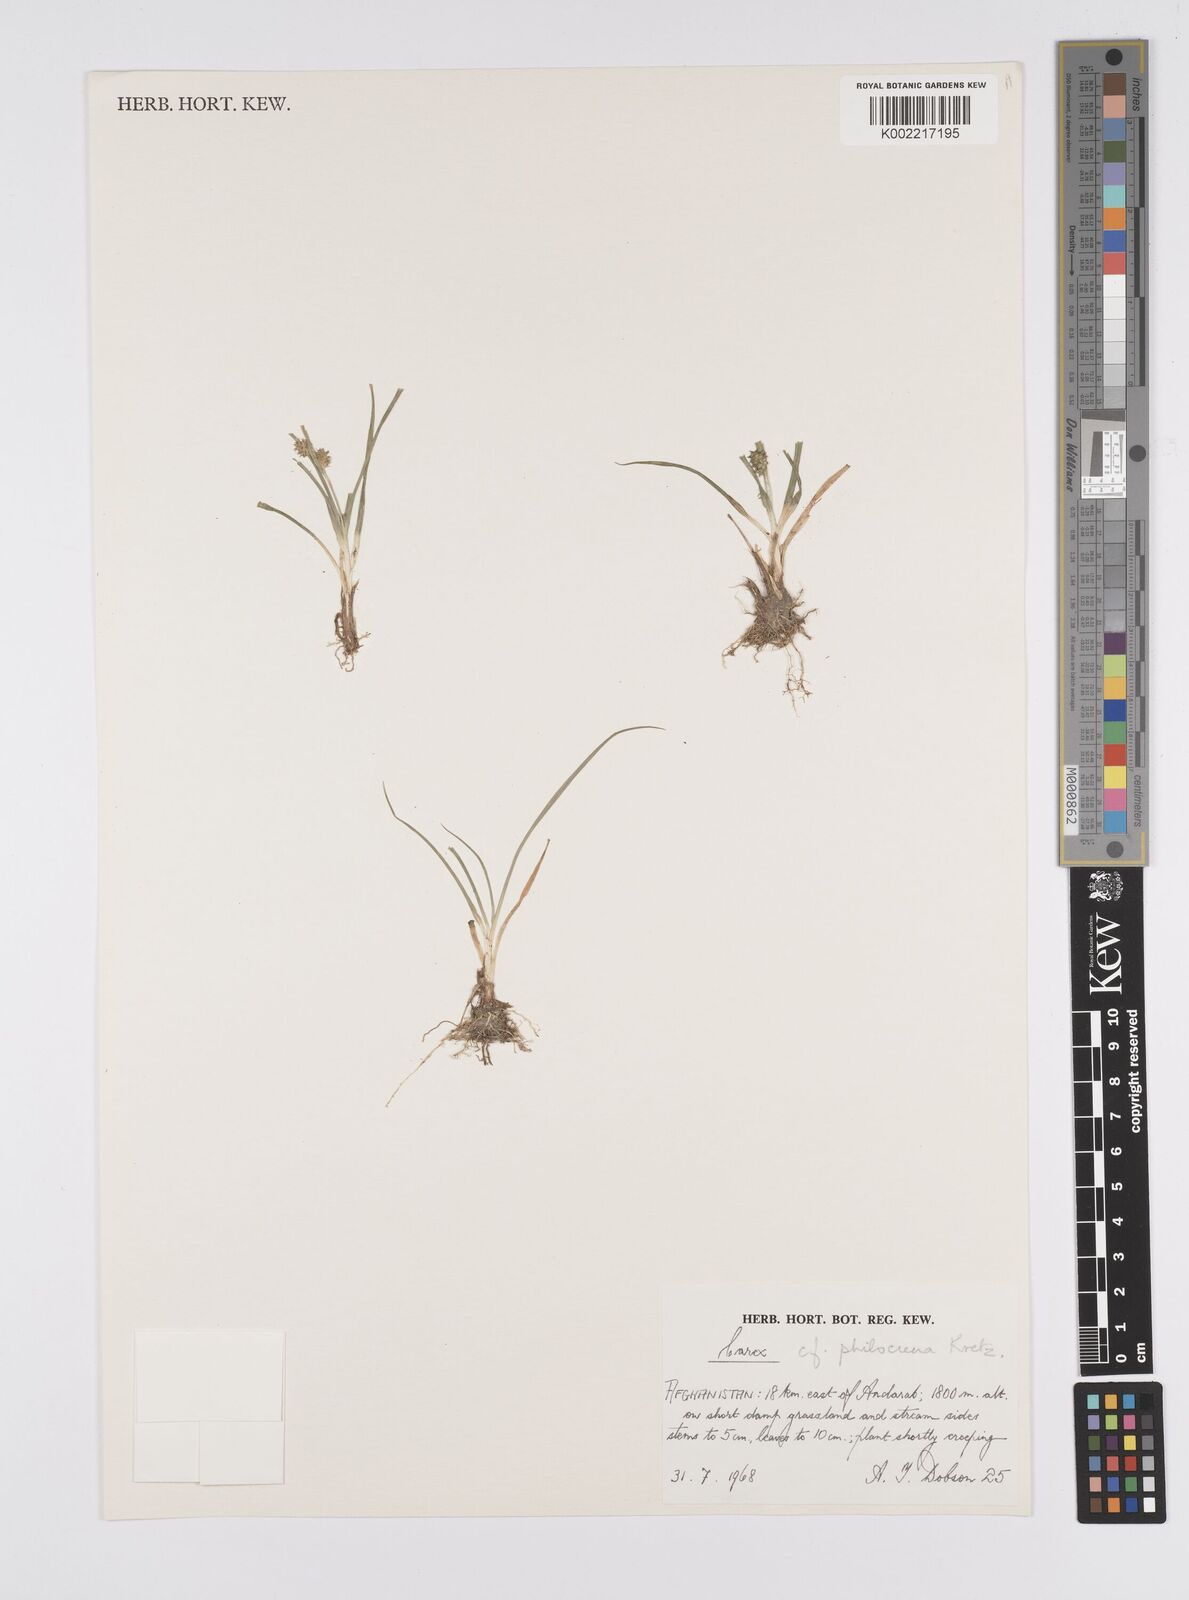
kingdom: Plantae
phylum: Tracheophyta
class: Liliopsida
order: Poales
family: Cyperaceae
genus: Carex
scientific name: Carex oederi
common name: Common & small-fruited yellow-sedge
